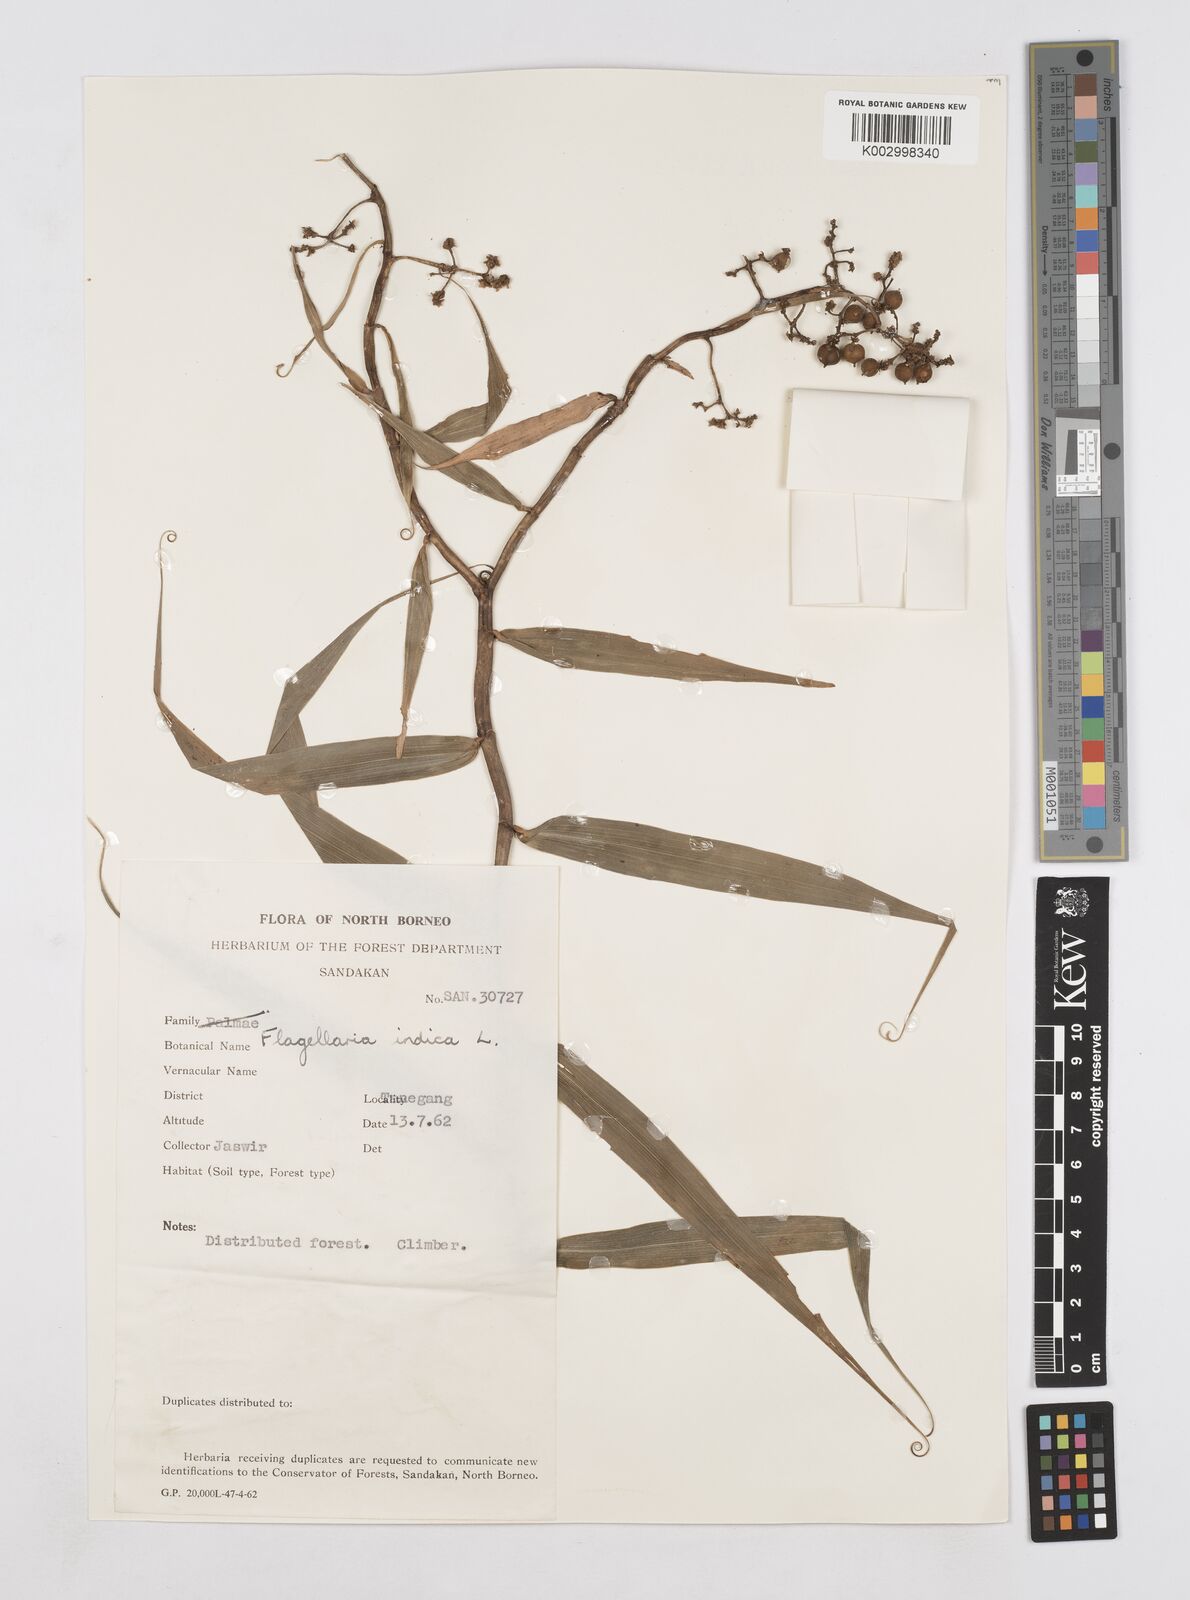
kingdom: Plantae
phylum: Tracheophyta
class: Liliopsida
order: Poales
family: Flagellariaceae
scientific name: Flagellariaceae
